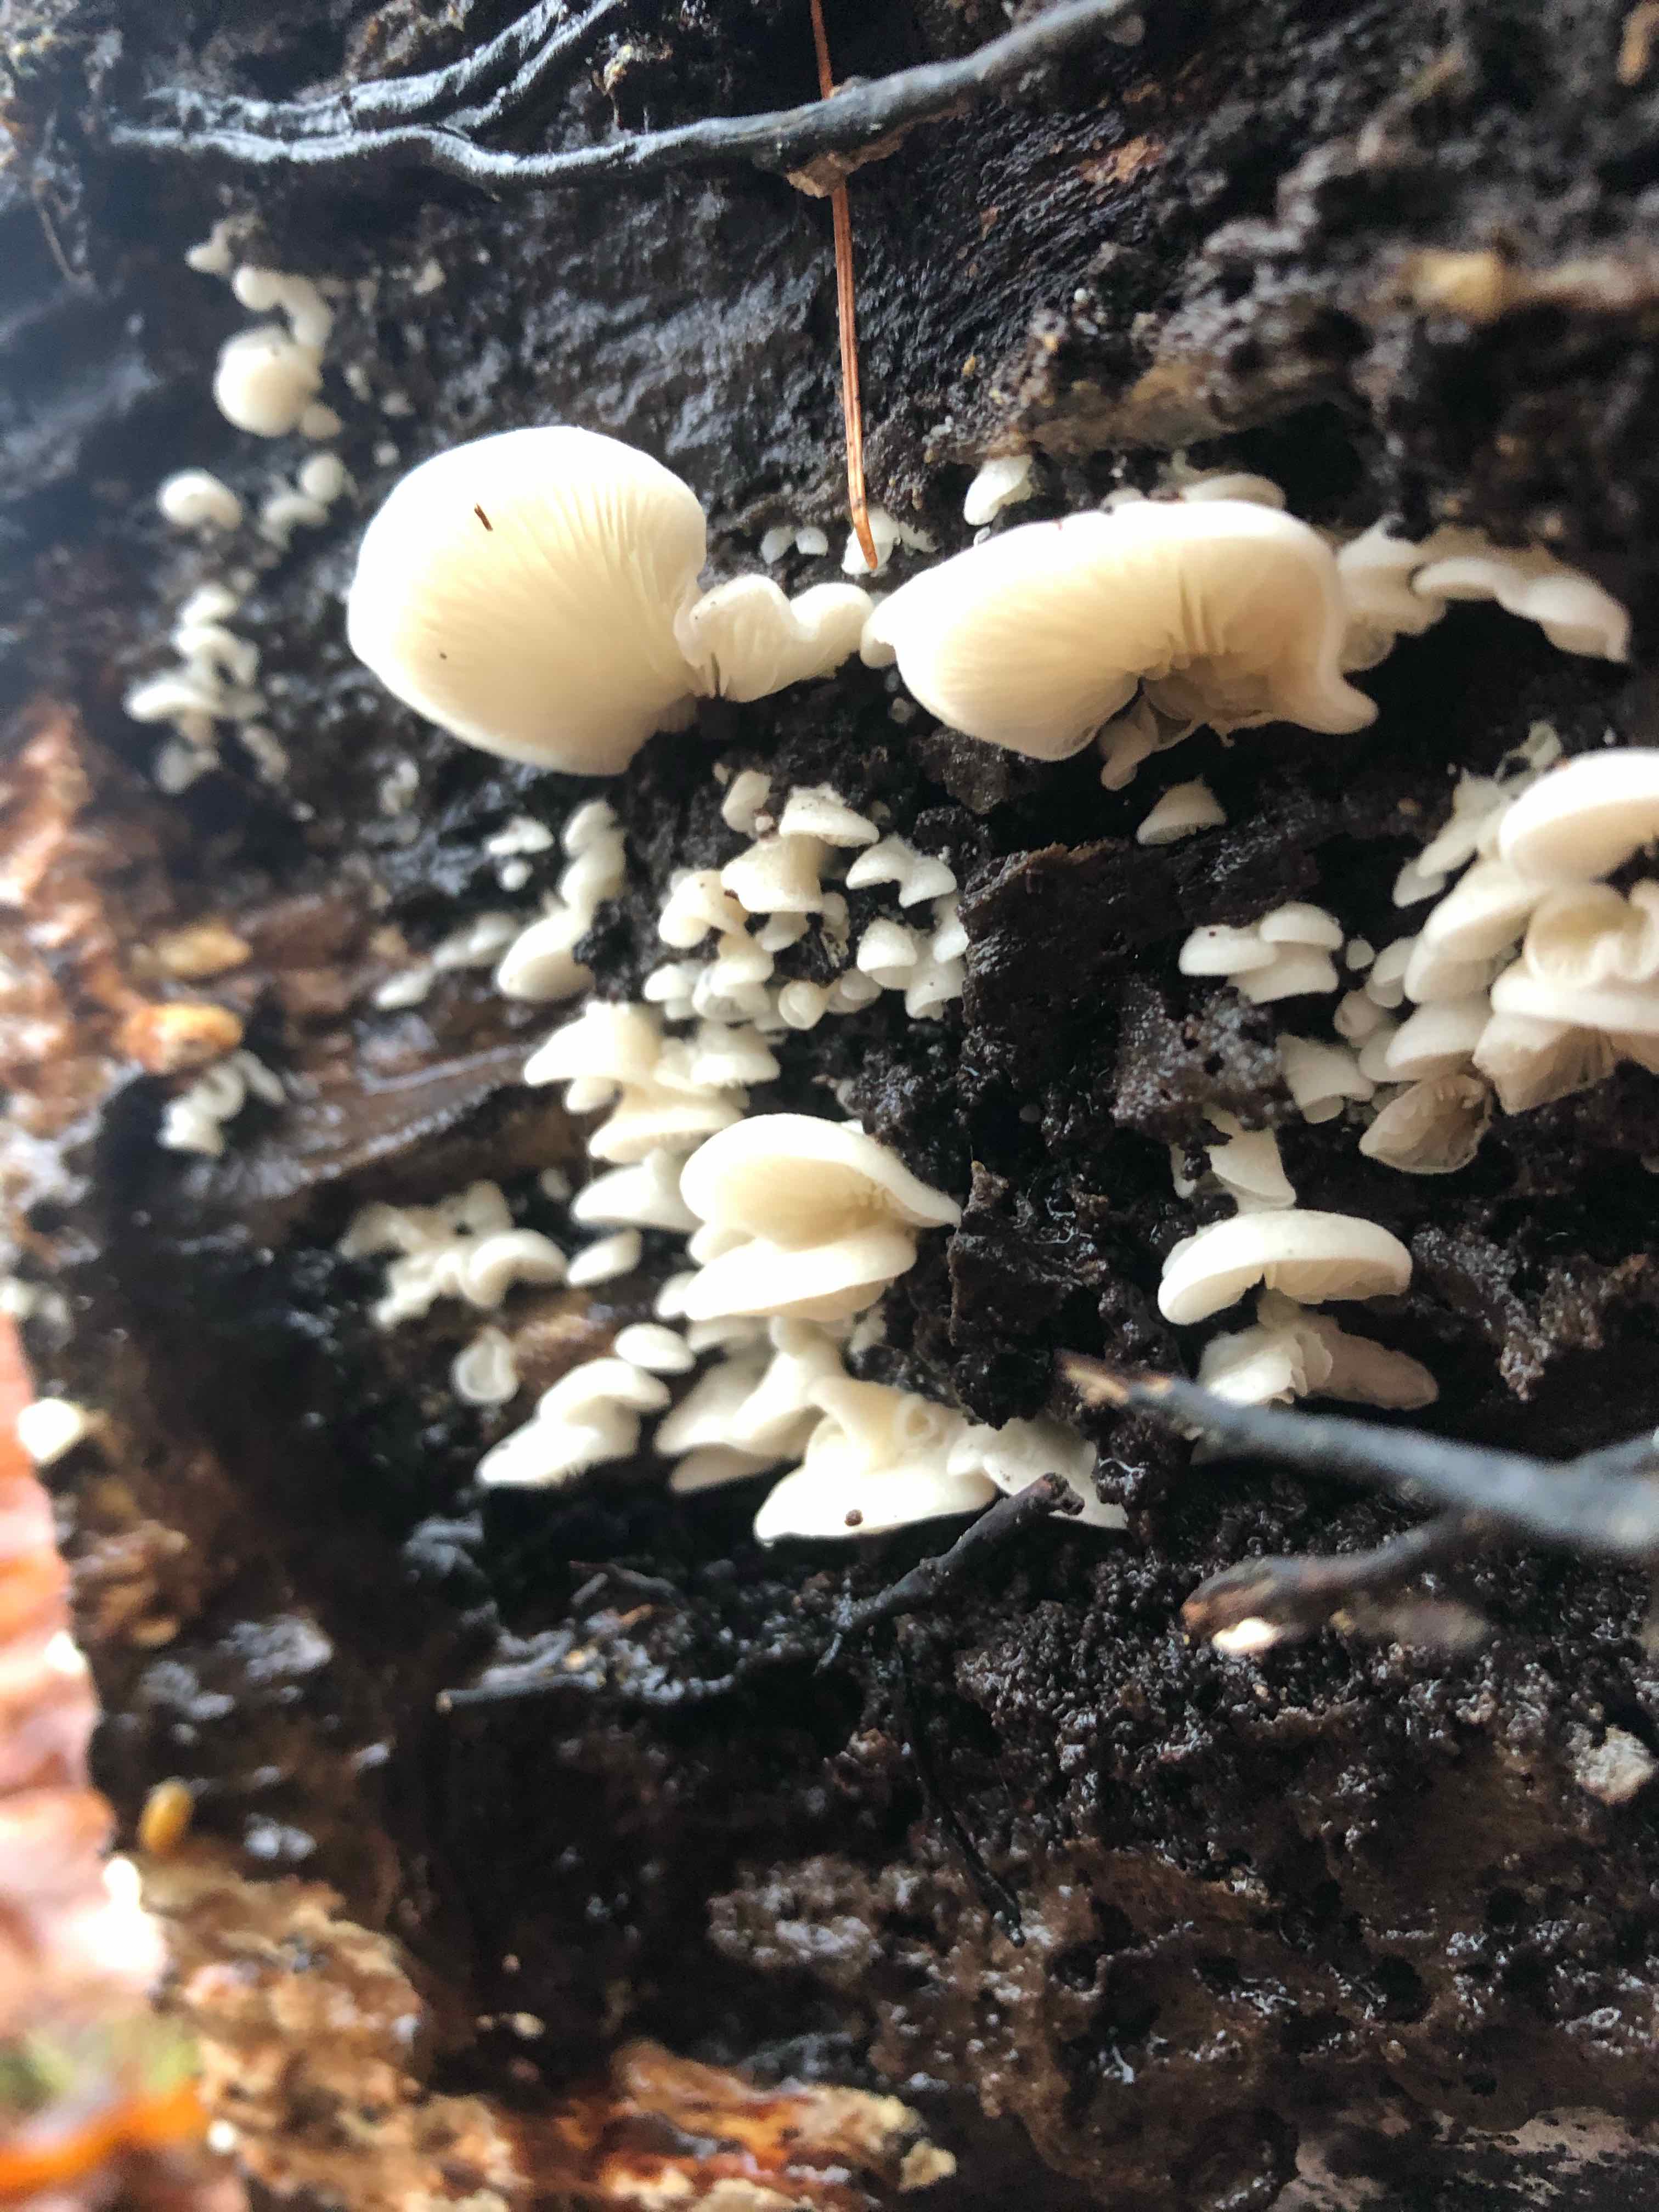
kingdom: Fungi
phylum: Basidiomycota
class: Agaricomycetes
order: Agaricales
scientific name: Agaricales
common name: champignonordenen
